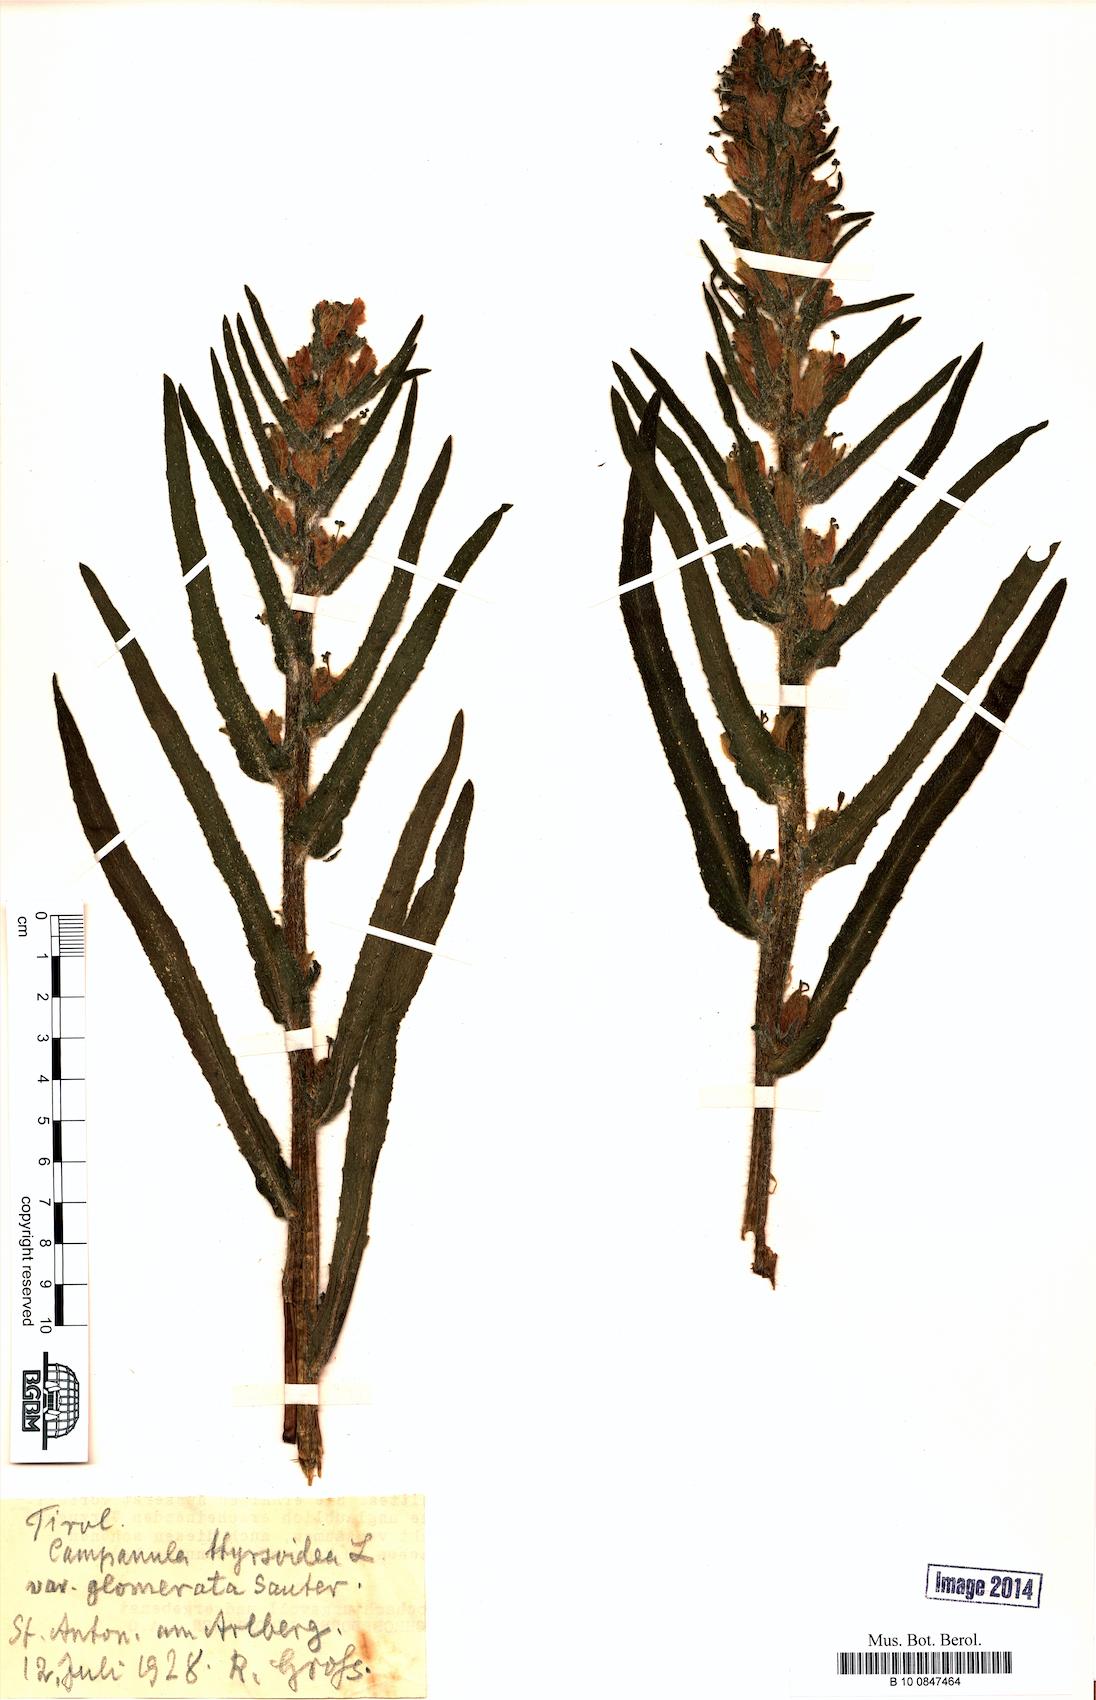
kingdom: Plantae
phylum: Tracheophyta
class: Magnoliopsida
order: Asterales
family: Campanulaceae
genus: Campanula
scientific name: Campanula thyrsoides
